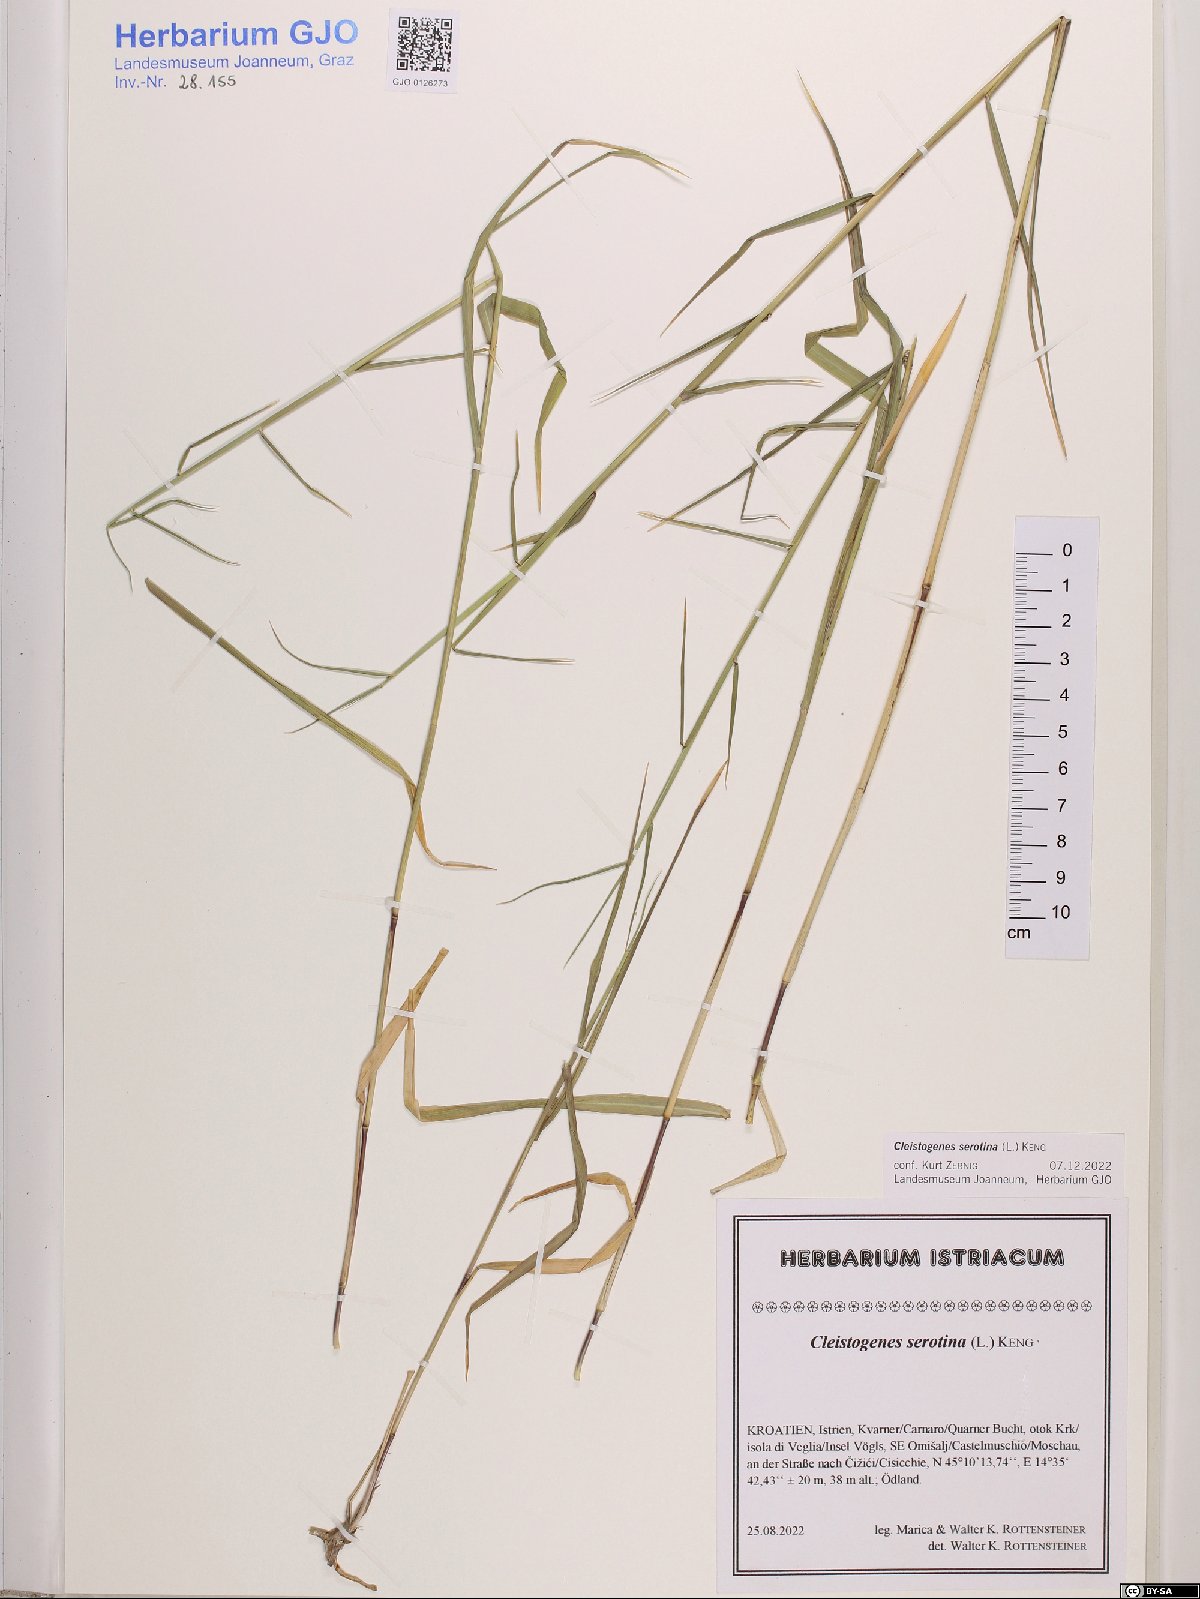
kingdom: Plantae
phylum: Tracheophyta
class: Liliopsida
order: Poales
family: Poaceae
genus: Cleistogenes
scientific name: Cleistogenes serotina
